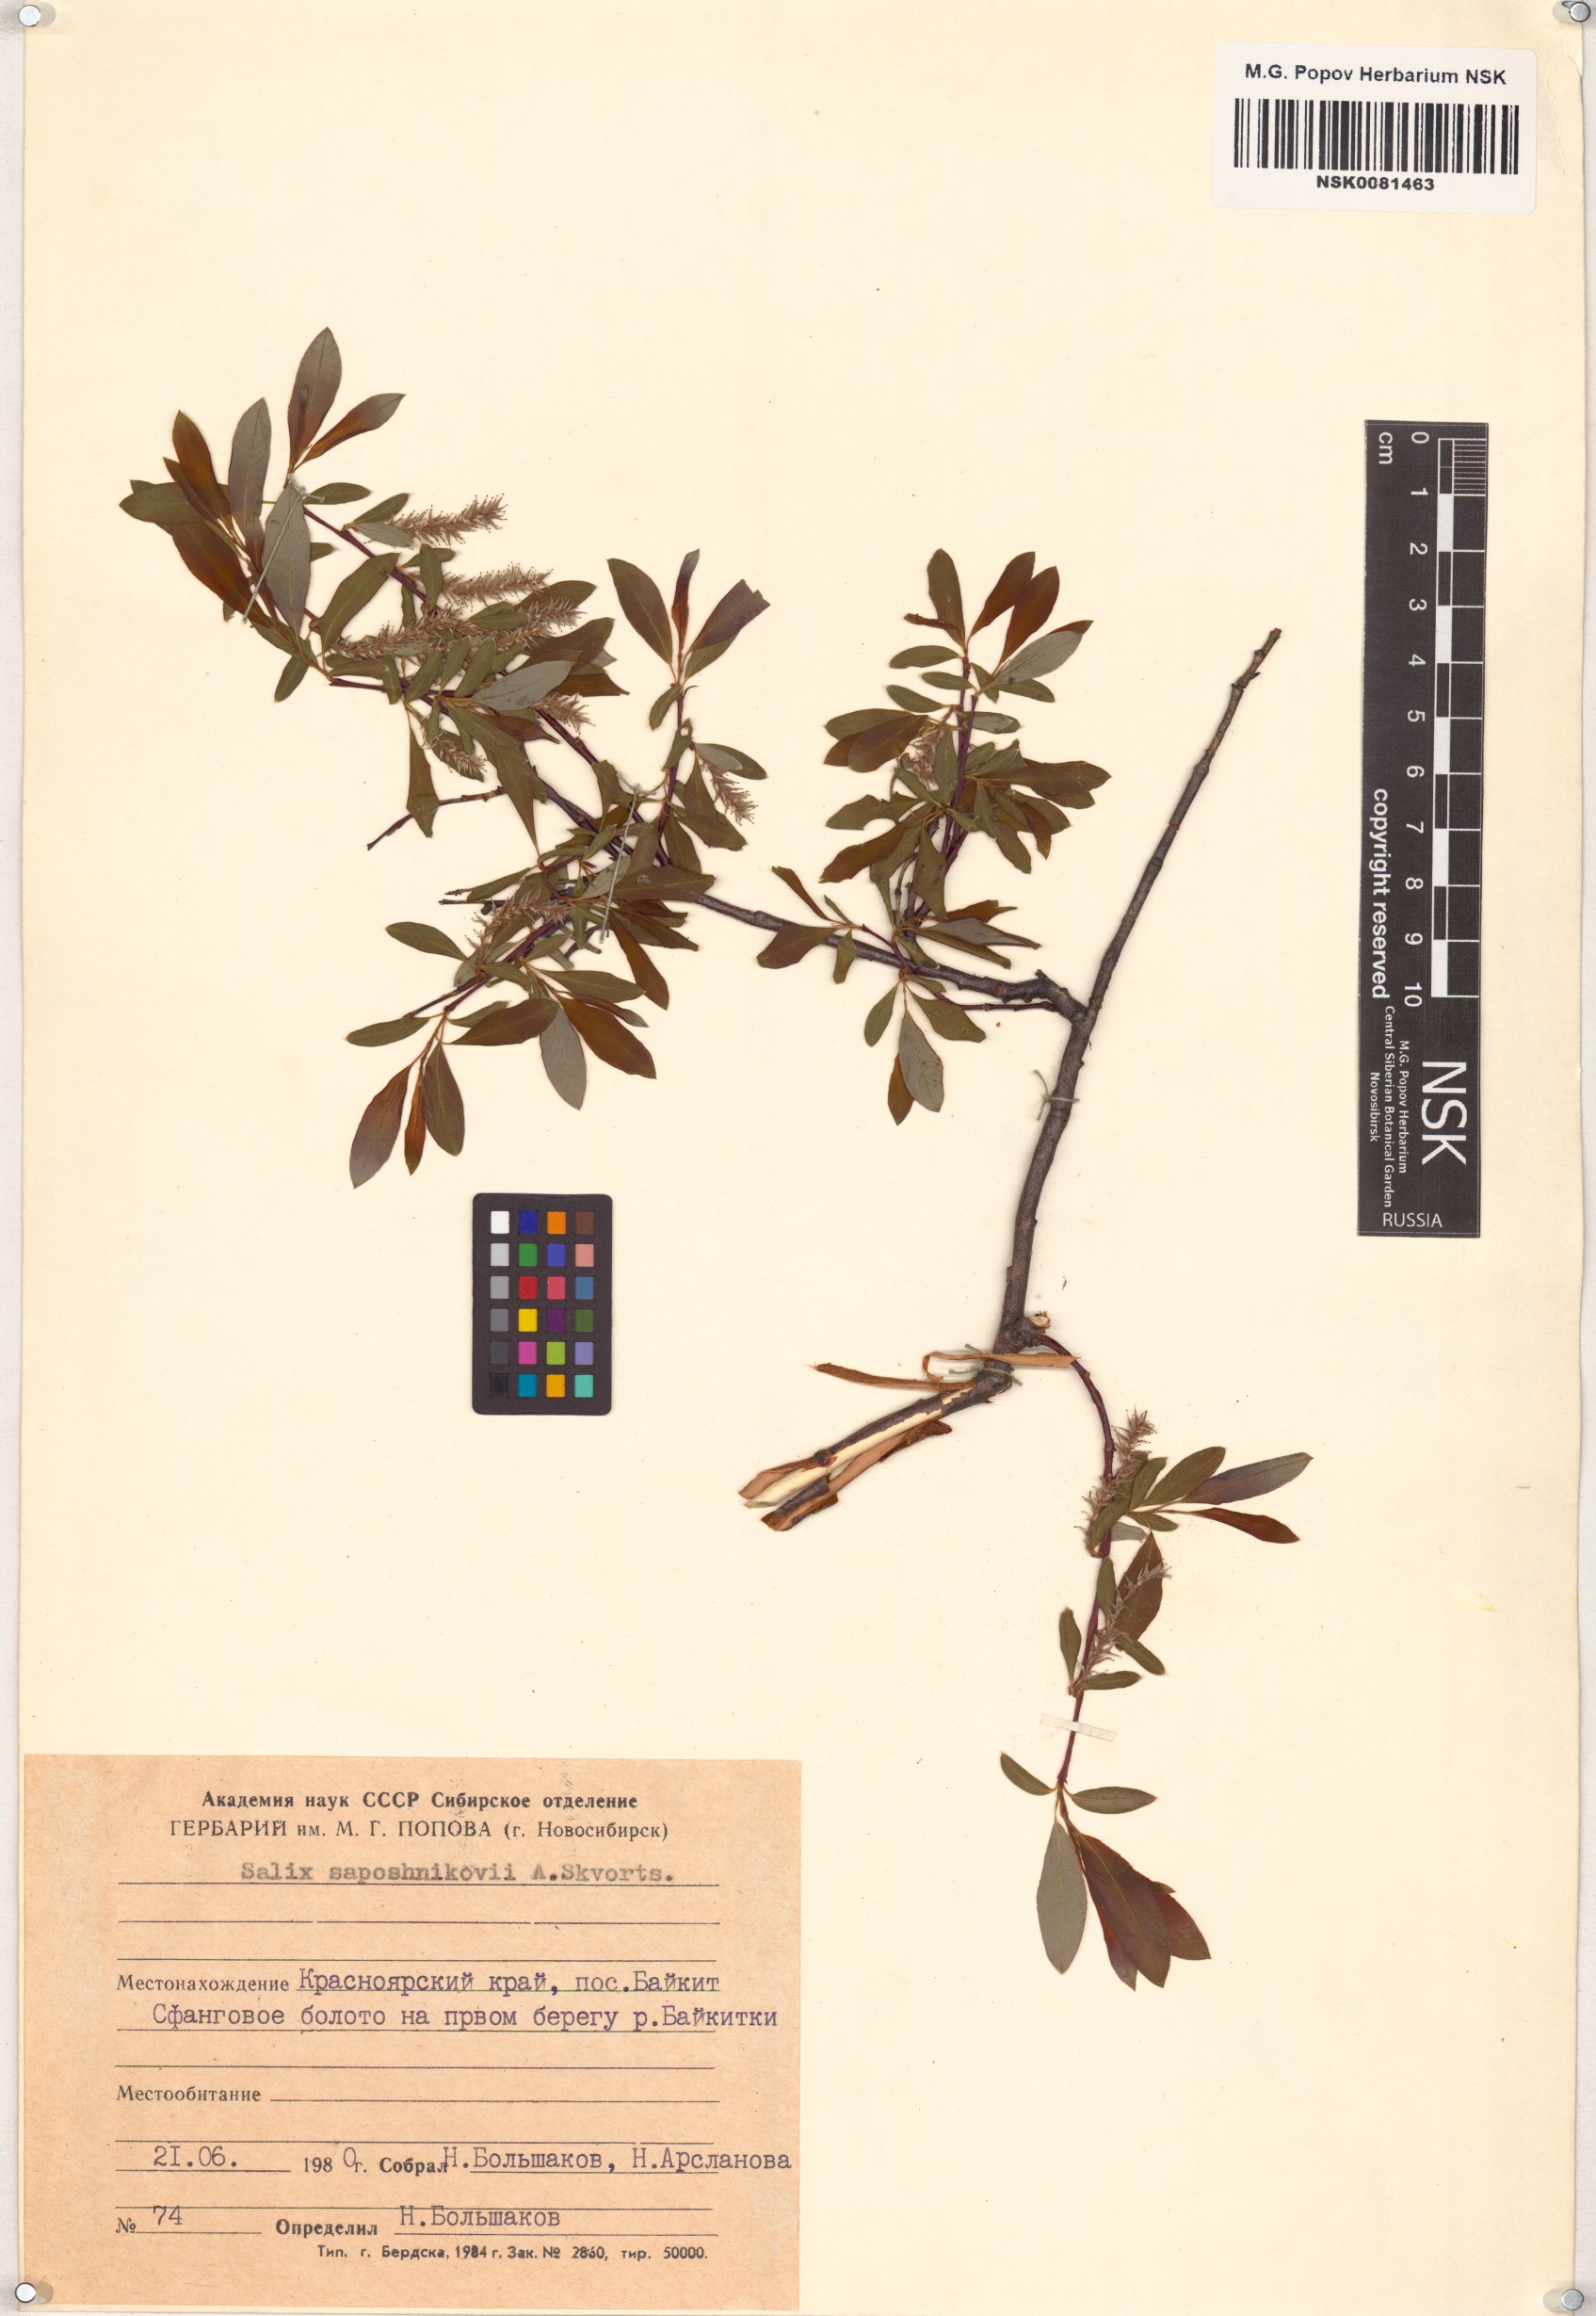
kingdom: Plantae
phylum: Tracheophyta
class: Magnoliopsida
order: Malpighiales
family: Salicaceae
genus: Salix
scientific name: Salix saposhnikovii
